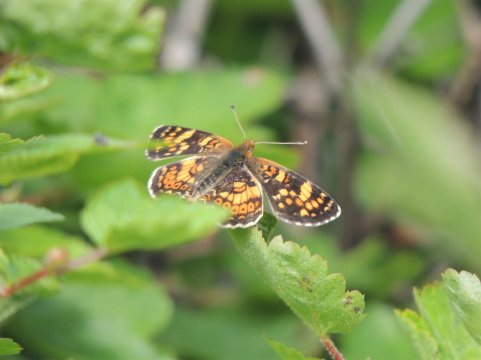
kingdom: Animalia
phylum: Arthropoda
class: Insecta
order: Lepidoptera
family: Nymphalidae
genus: Phyciodes
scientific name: Phyciodes tharos
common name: Field Crescent
